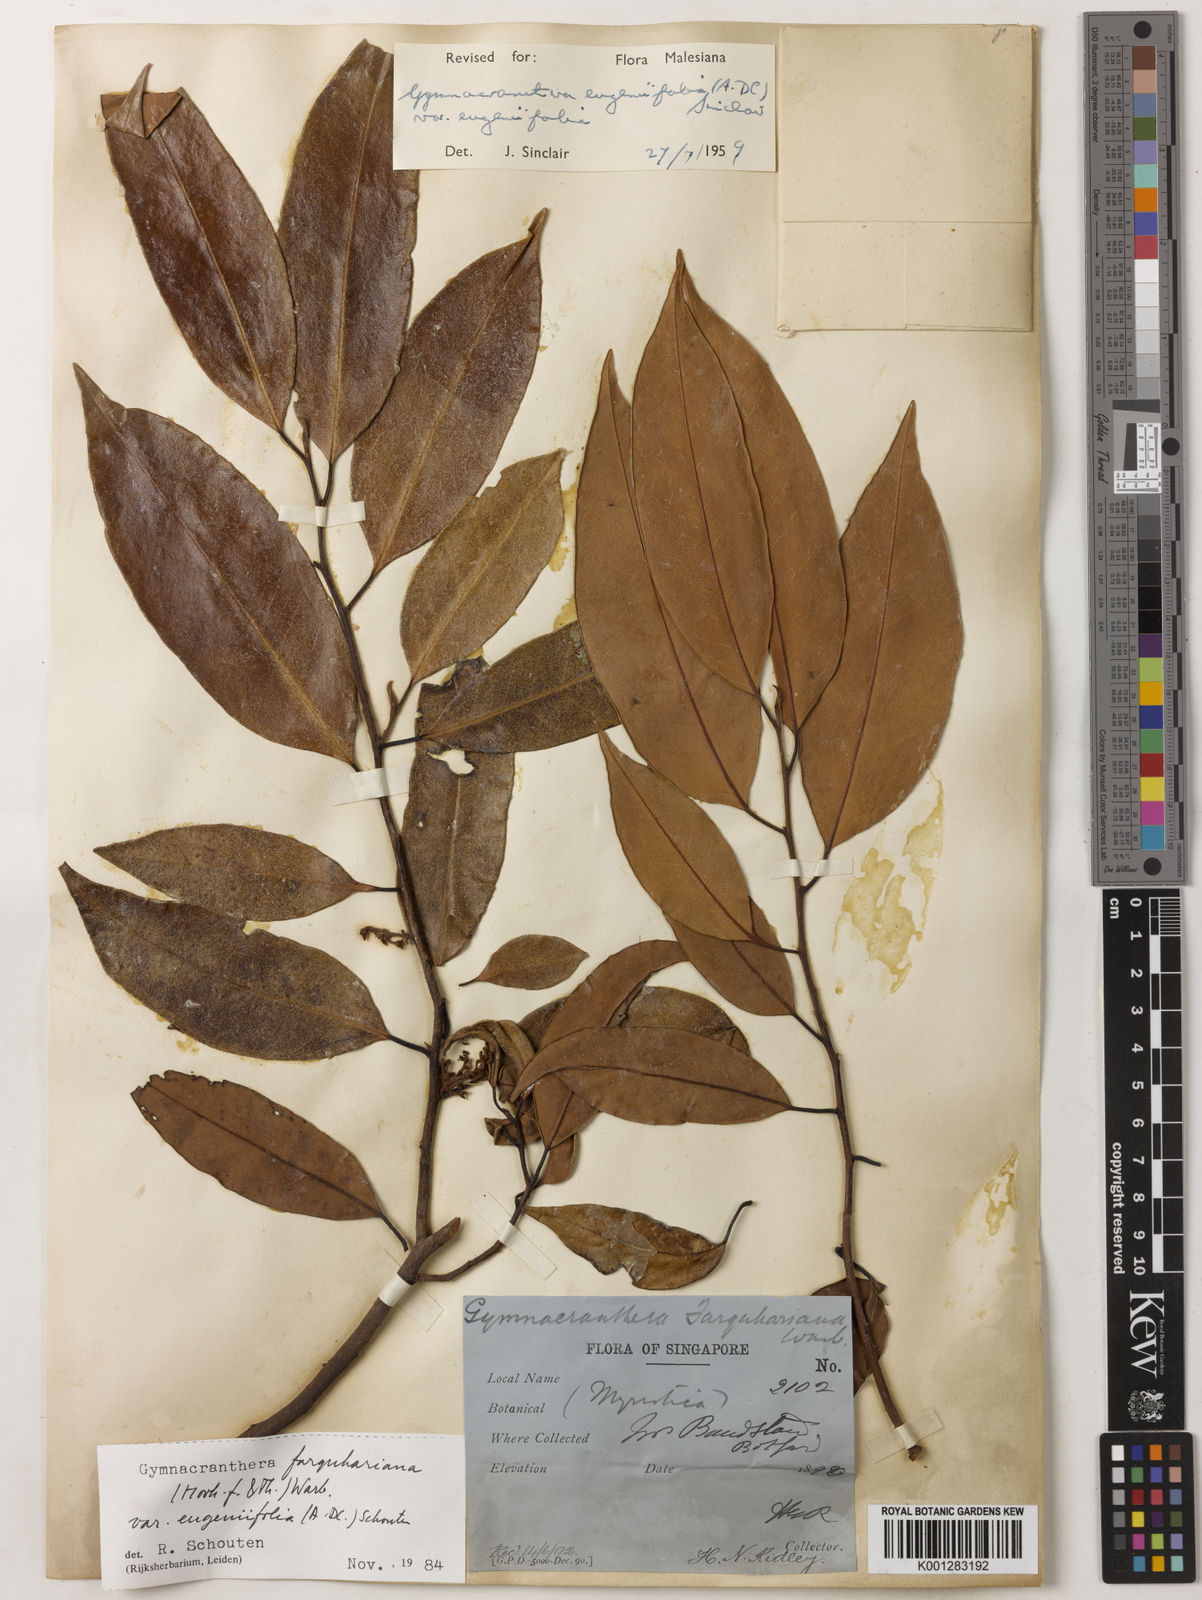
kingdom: Plantae
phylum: Tracheophyta
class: Magnoliopsida
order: Magnoliales
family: Myristicaceae
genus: Gymnacranthera
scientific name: Gymnacranthera farquhariana
